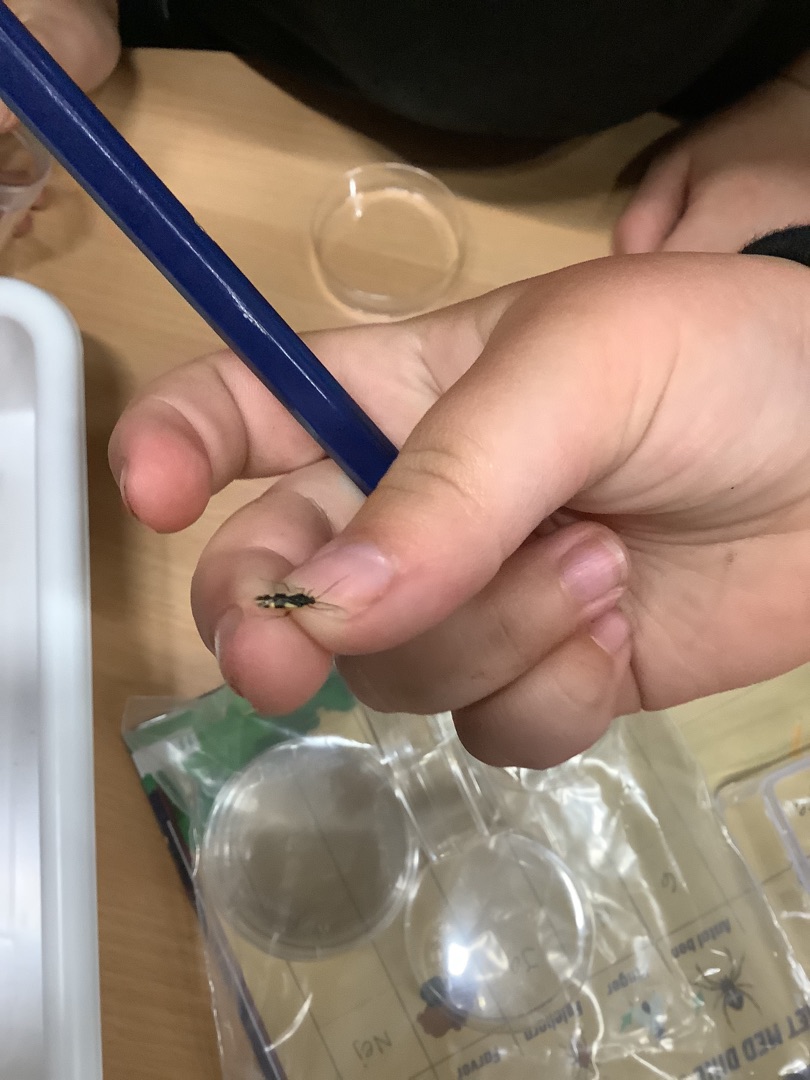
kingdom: Animalia
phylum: Arthropoda
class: Insecta
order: Hemiptera
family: Miridae
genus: Dryophilocoris
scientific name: Dryophilocoris flavoquadrimaculatus
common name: Fireplettet blomstertæge
